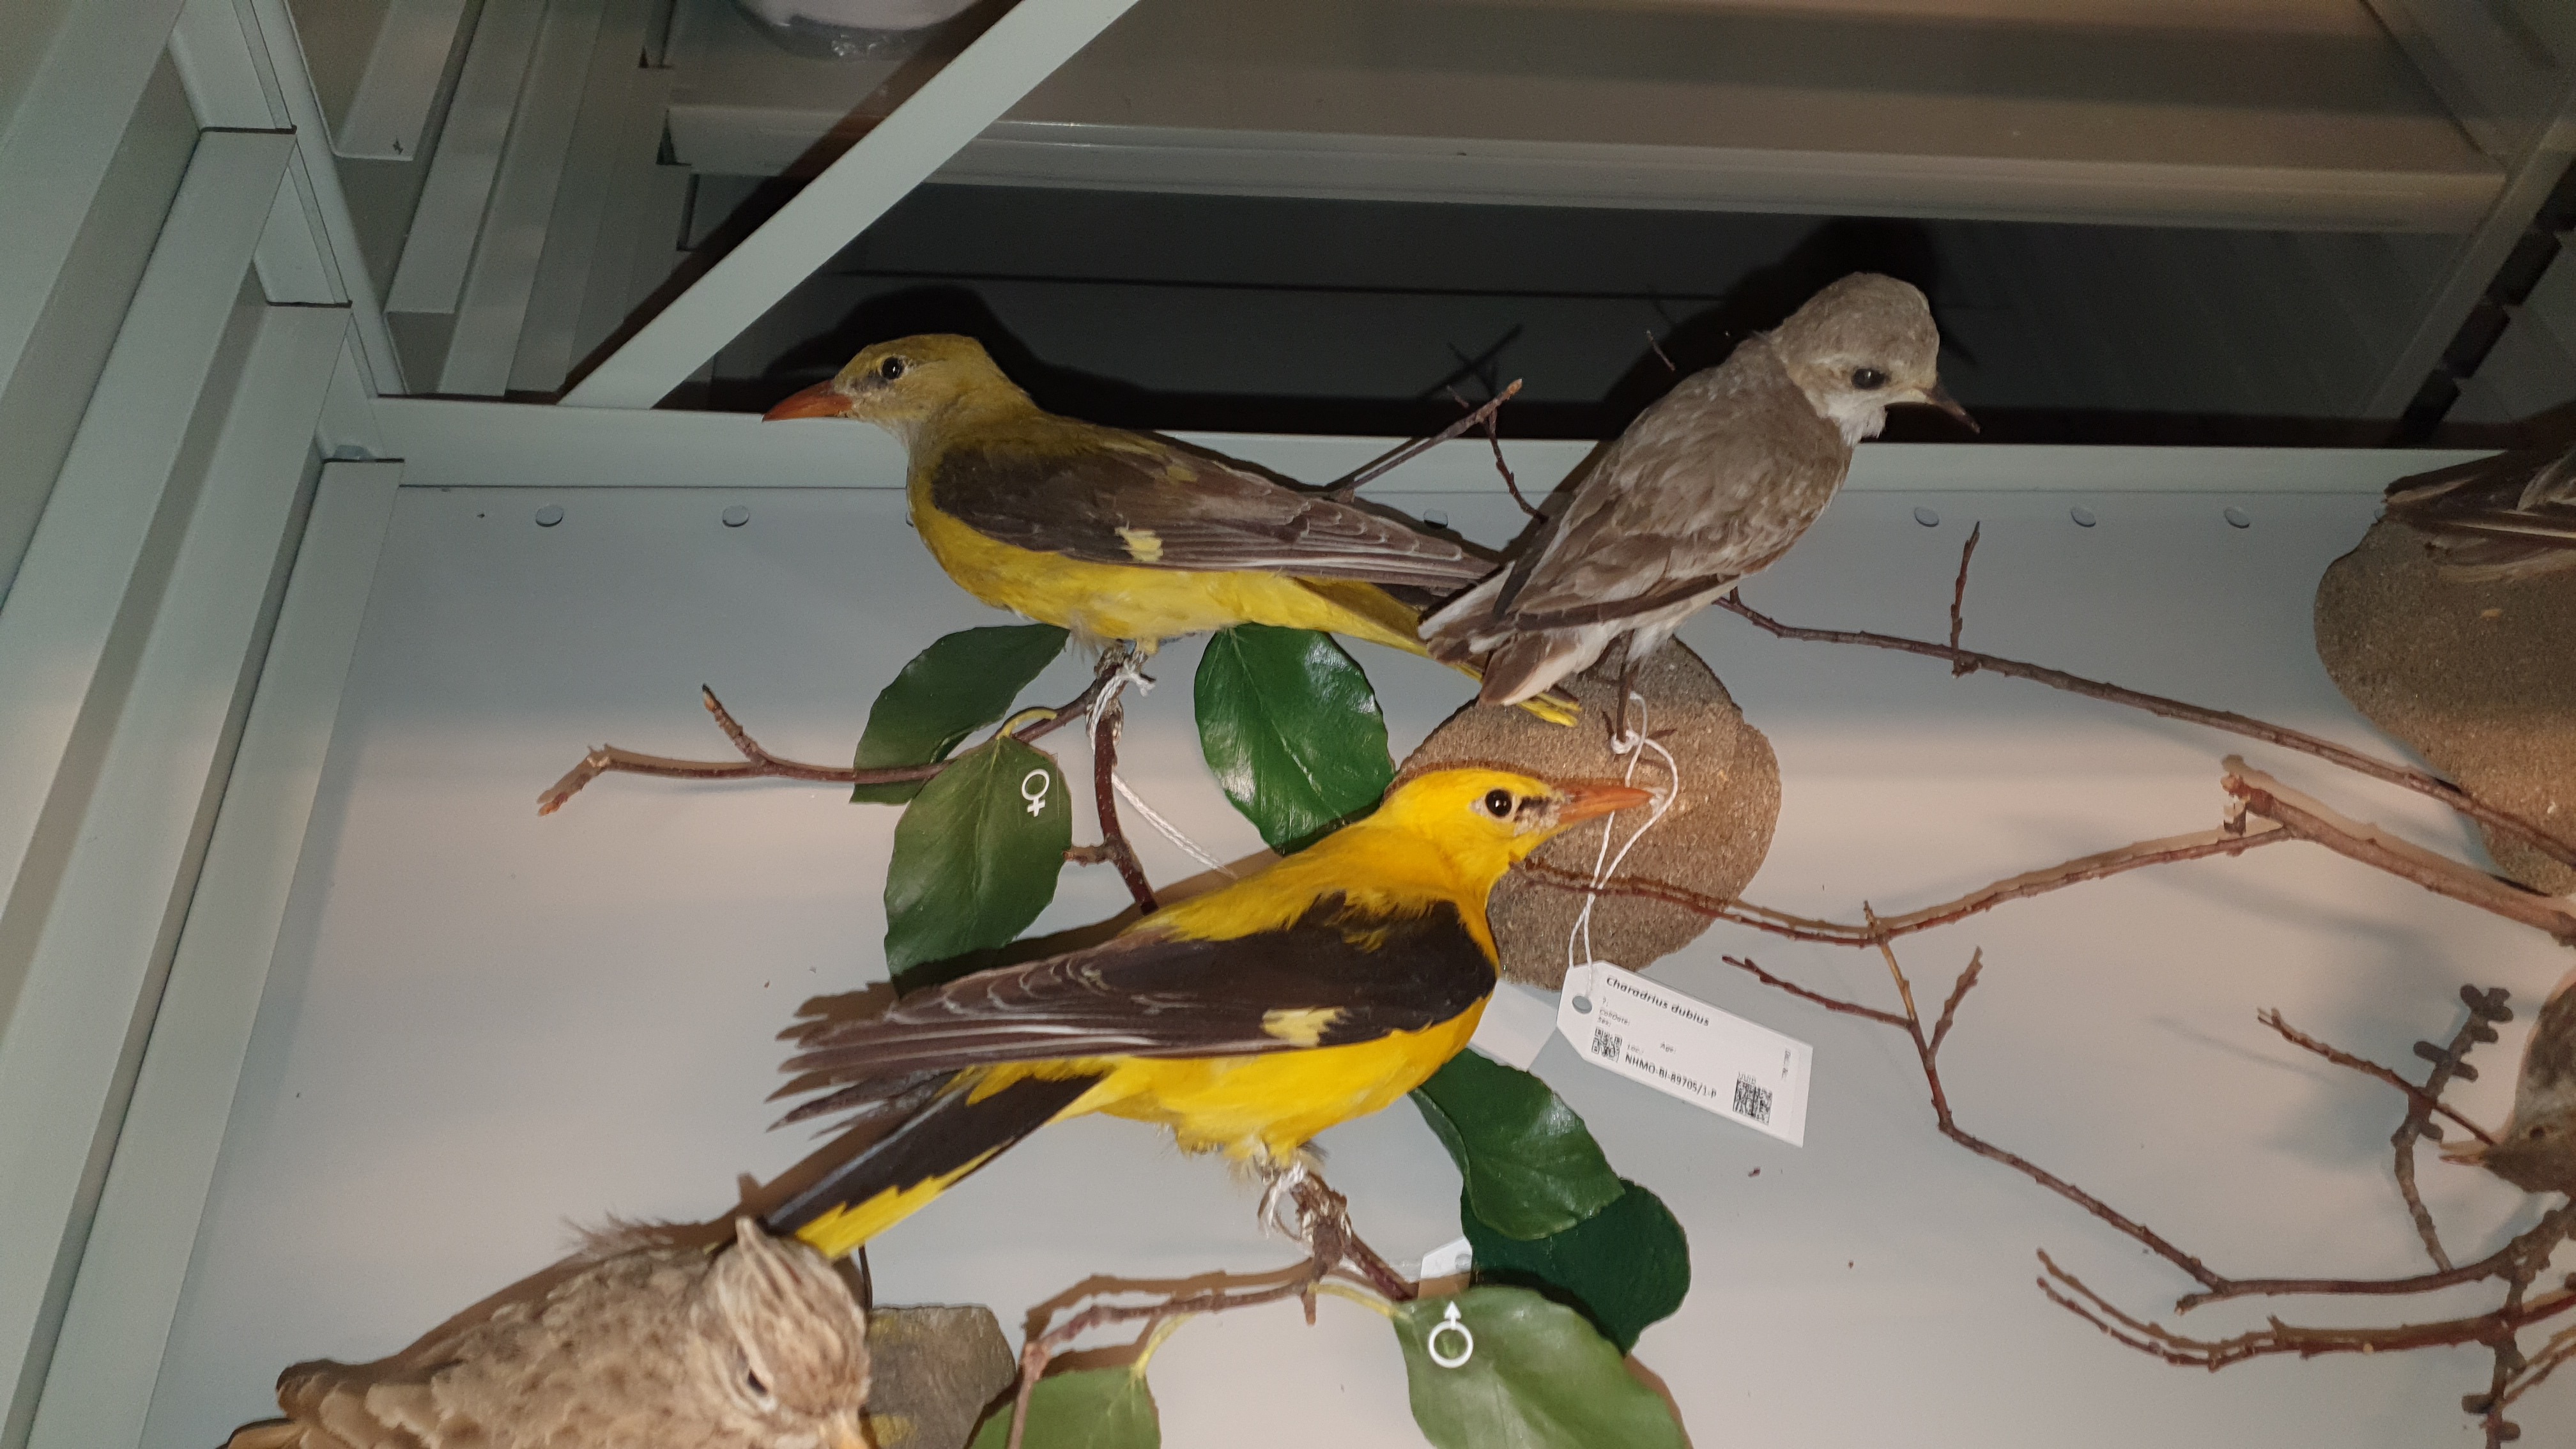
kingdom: Animalia
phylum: Chordata
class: Aves
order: Passeriformes
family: Oriolidae
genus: Oriolus
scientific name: Oriolus oriolus
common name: Eurasian golden oriole
